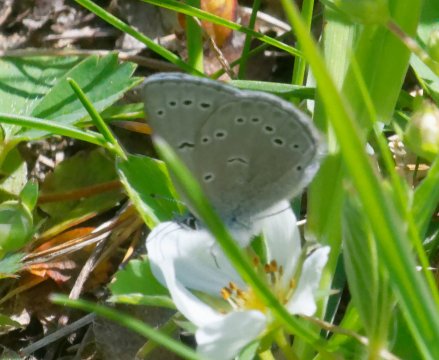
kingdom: Animalia
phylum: Arthropoda
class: Insecta
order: Lepidoptera
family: Lycaenidae
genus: Glaucopsyche
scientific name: Glaucopsyche lygdamus
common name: Silvery Blue
